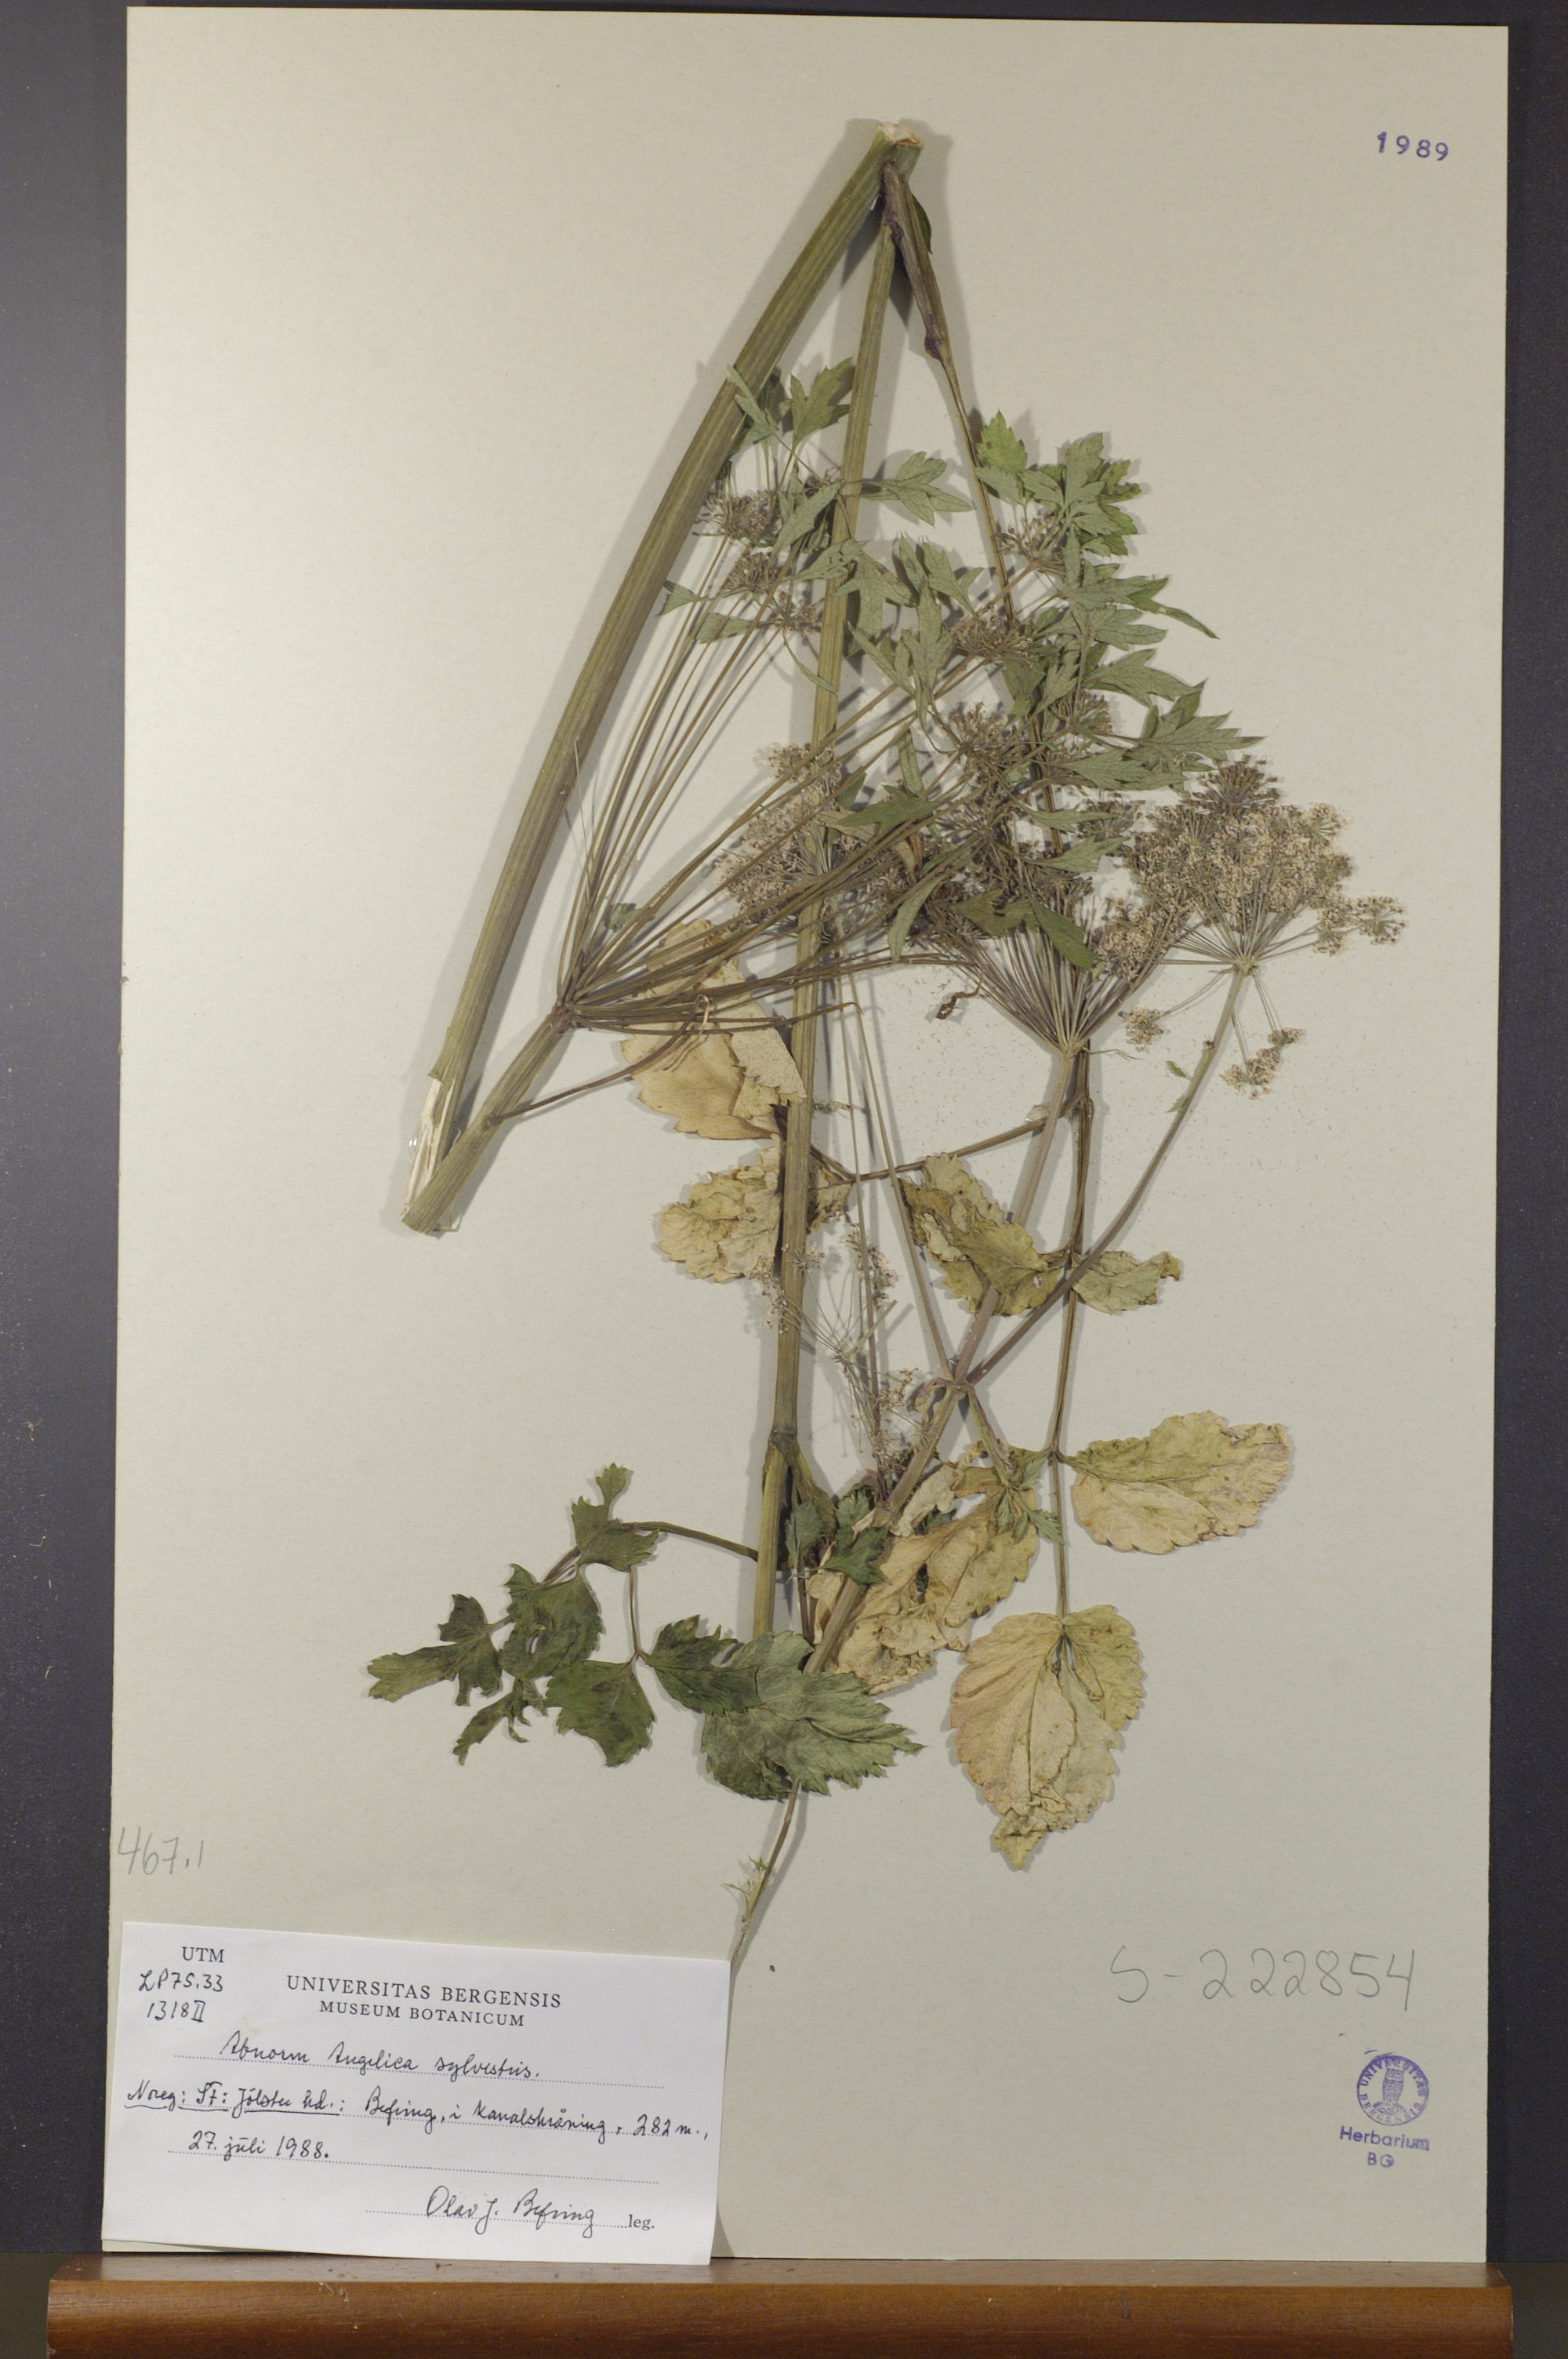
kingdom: Plantae
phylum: Tracheophyta
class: Magnoliopsida
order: Apiales
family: Apiaceae
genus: Angelica
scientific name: Angelica sylvestris
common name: Wild angelica
